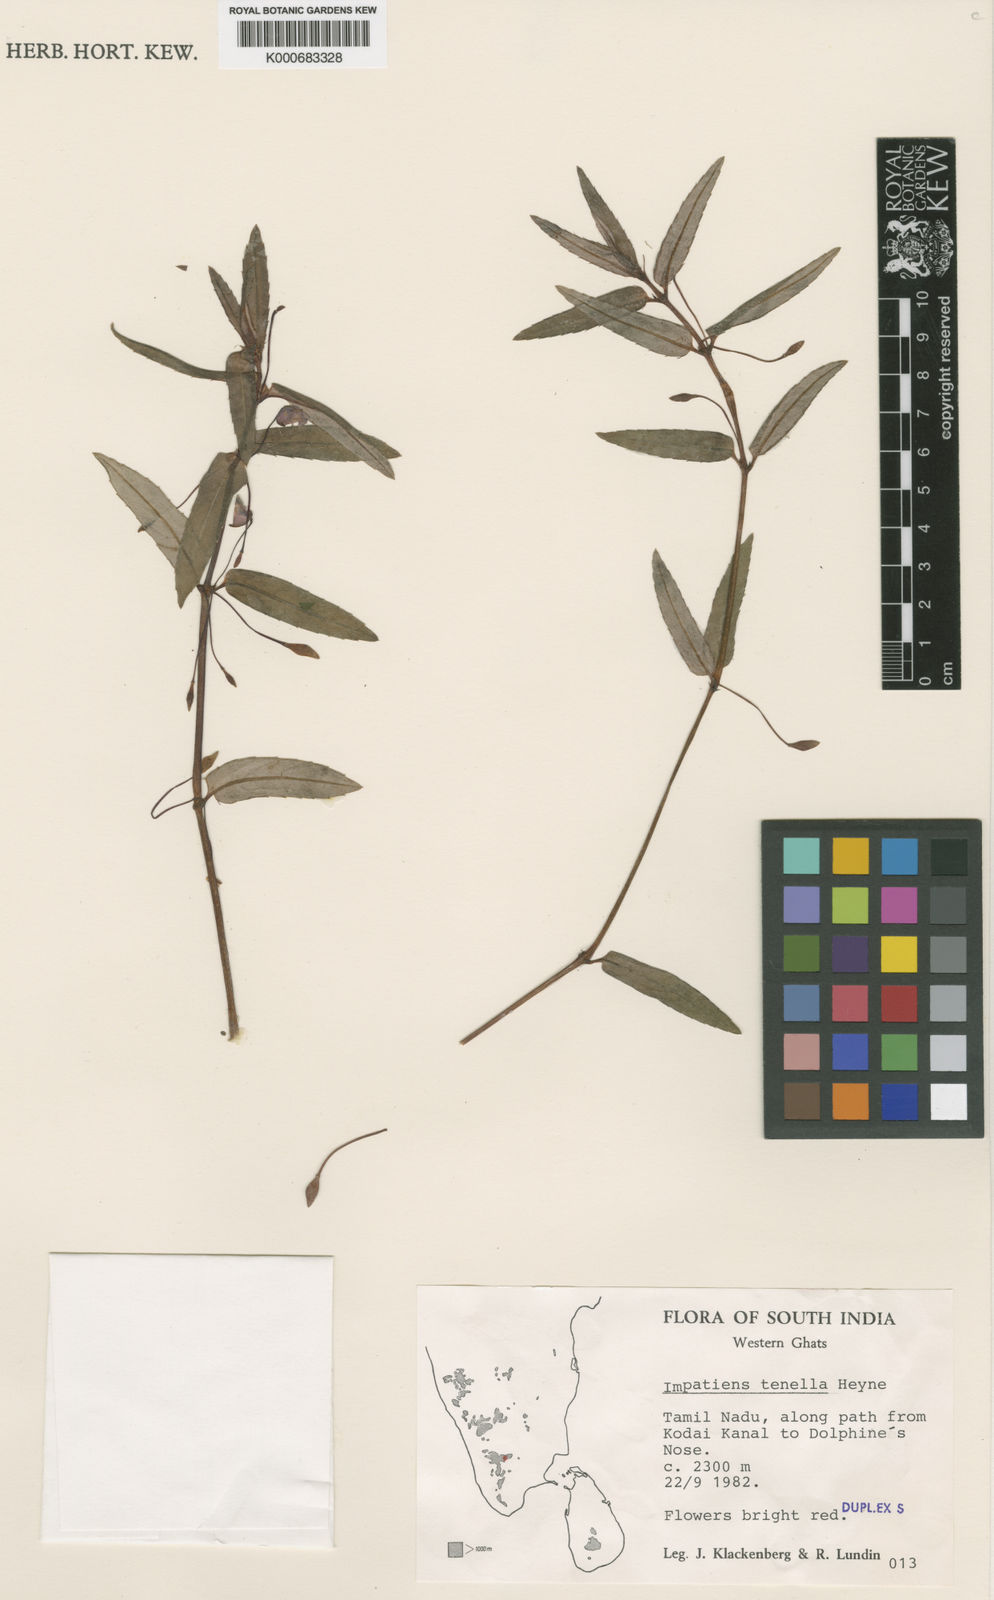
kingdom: Plantae
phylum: Tracheophyta
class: Magnoliopsida
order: Ericales
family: Balsaminaceae
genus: Impatiens
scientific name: Impatiens
